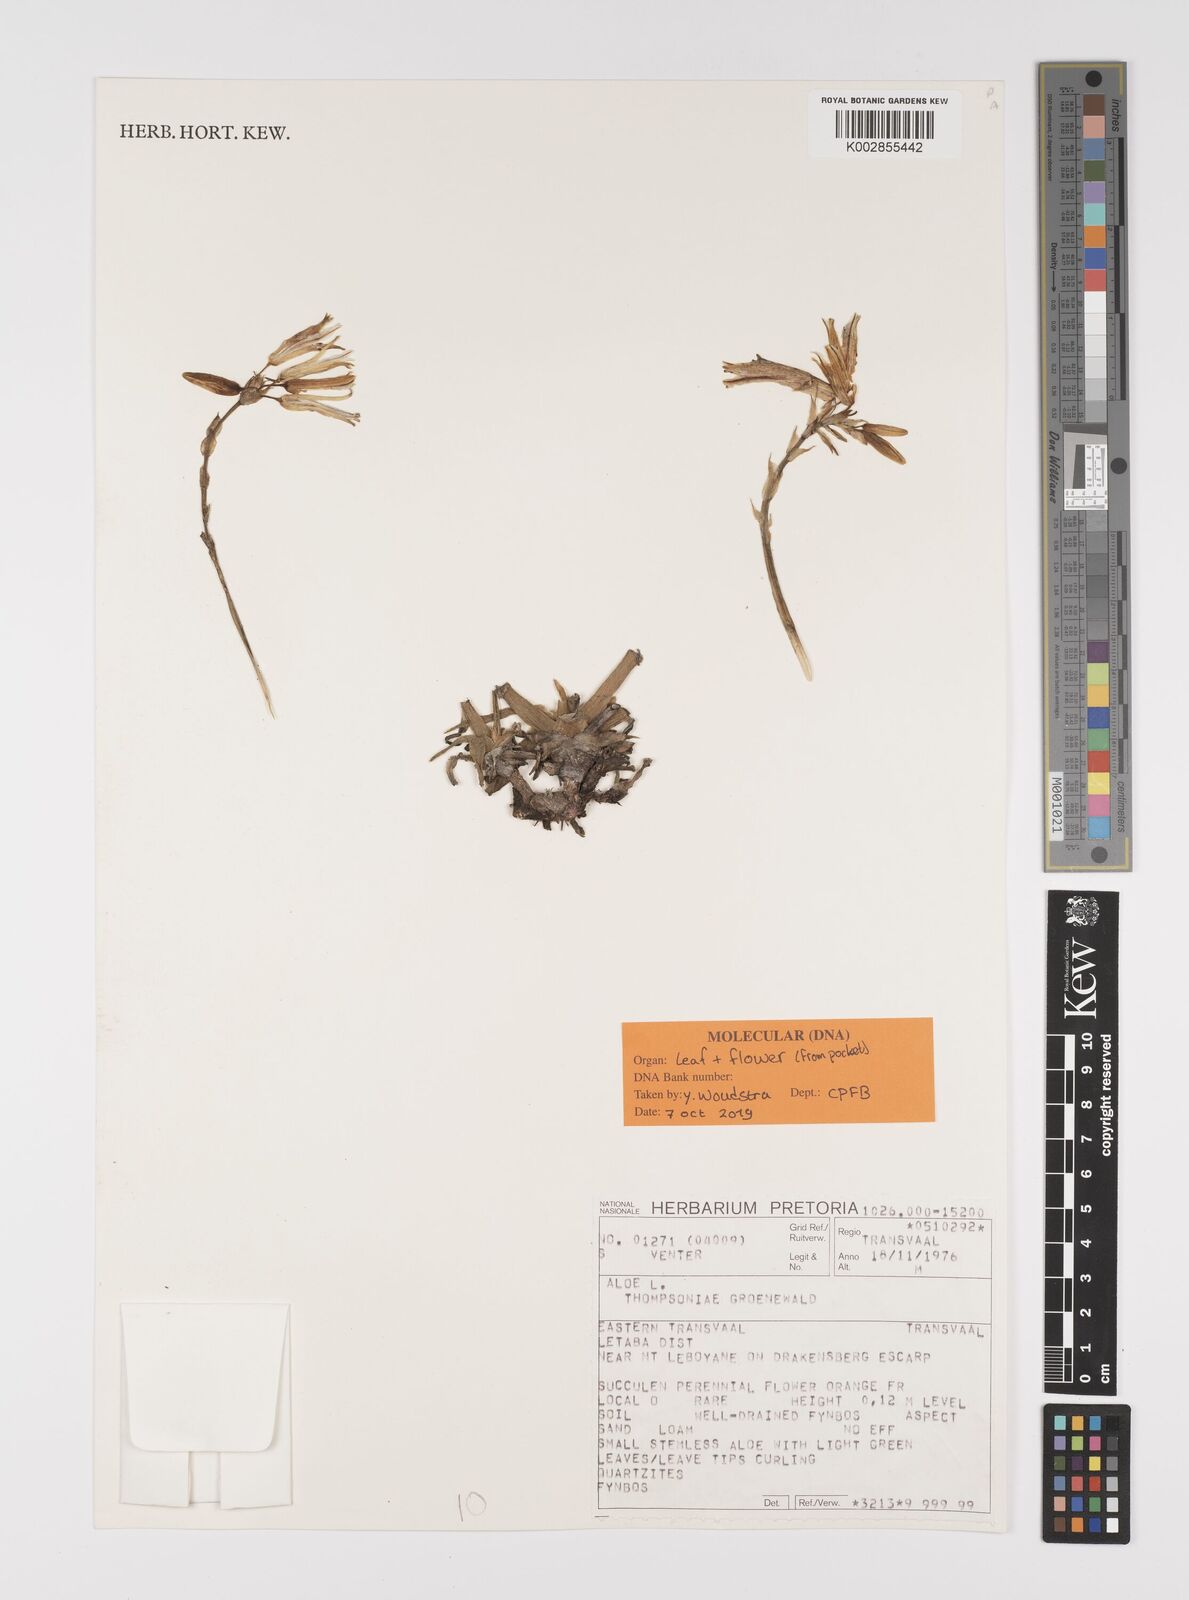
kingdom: Plantae
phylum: Tracheophyta
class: Liliopsida
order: Asparagales
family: Asphodelaceae
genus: Aloe
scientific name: Aloe thompsoniae
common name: Thompson's aloe
